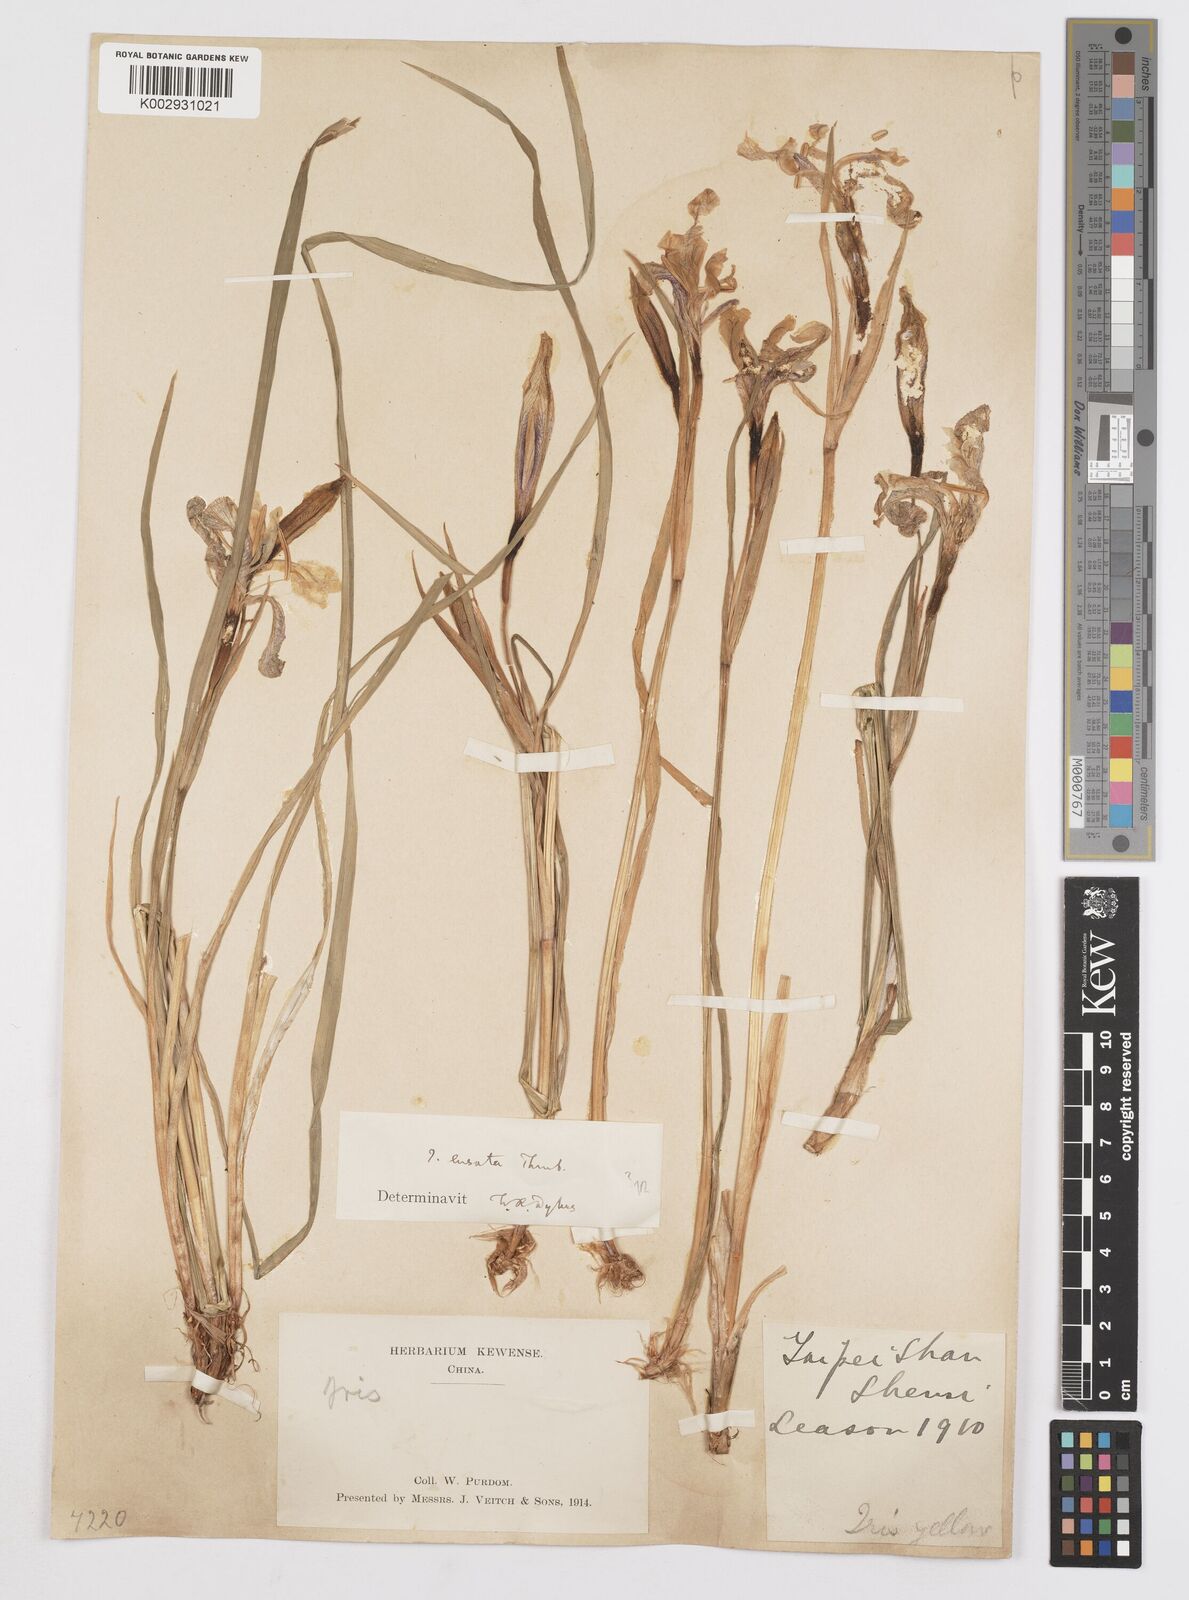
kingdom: Plantae
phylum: Tracheophyta
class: Liliopsida
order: Asparagales
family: Iridaceae
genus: Iris
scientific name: Iris
